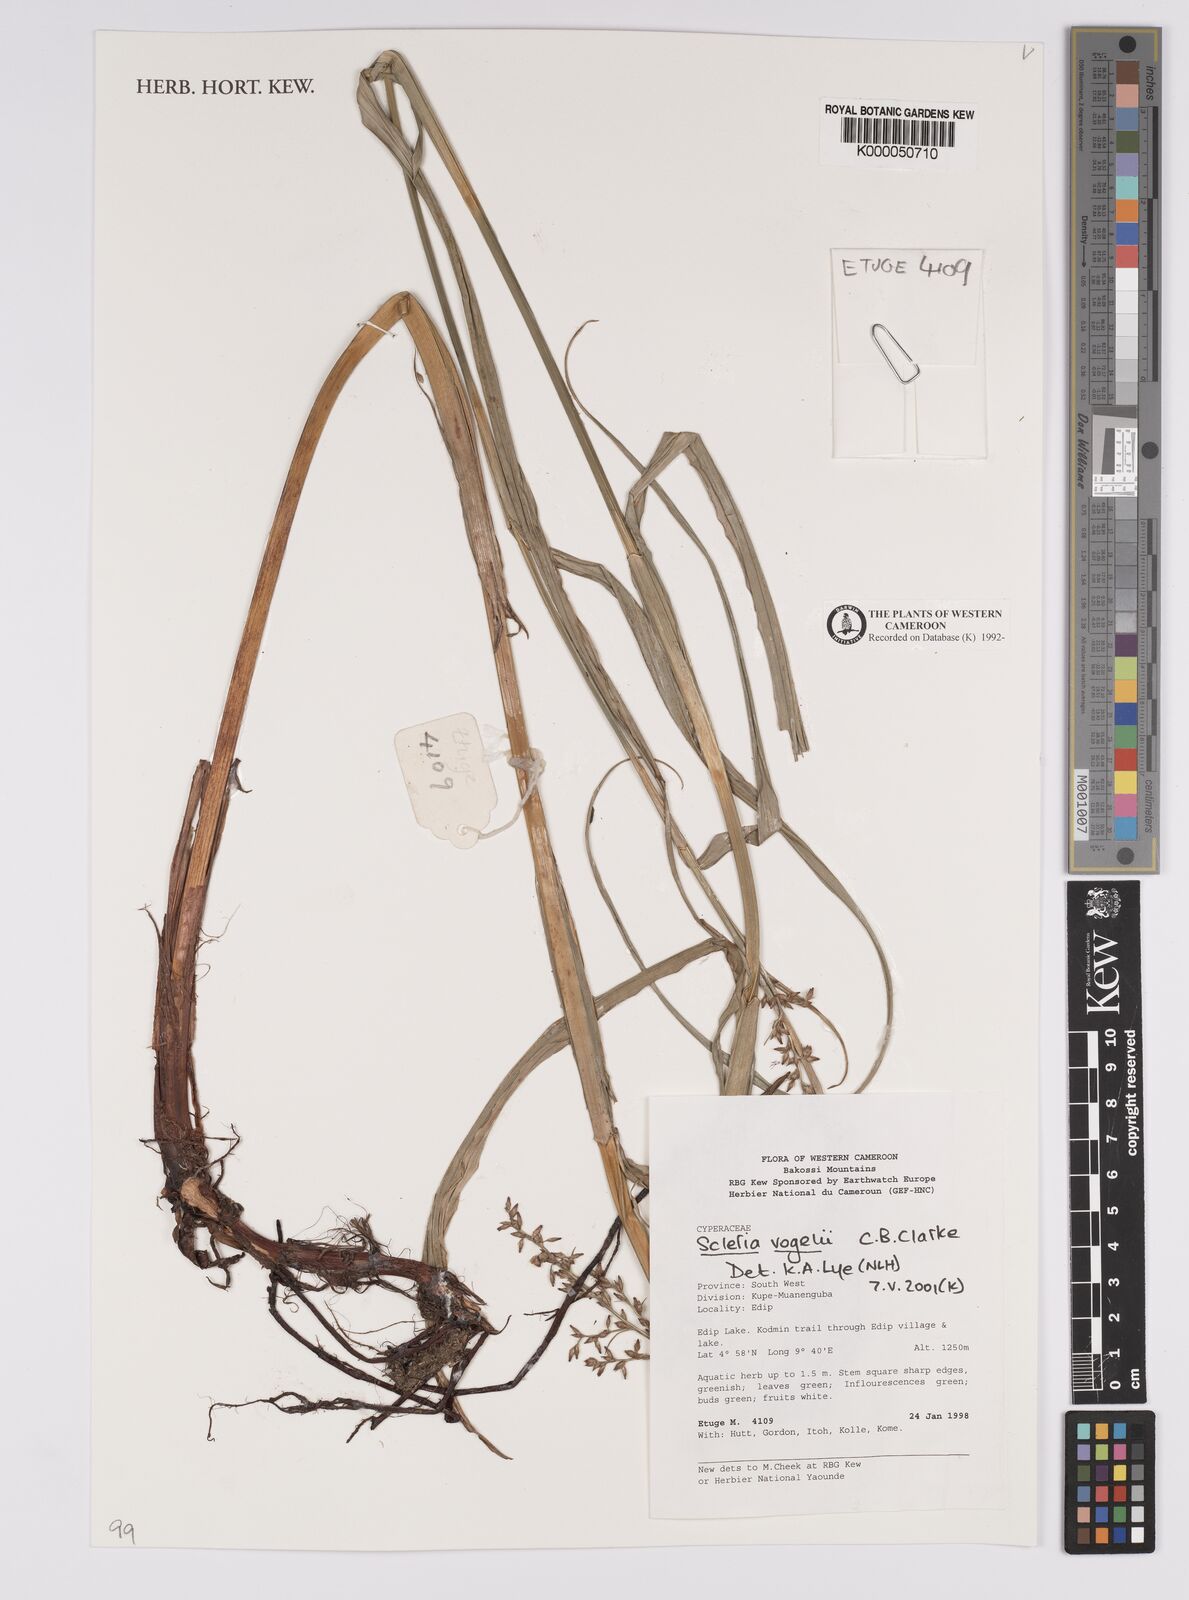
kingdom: Plantae
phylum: Tracheophyta
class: Liliopsida
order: Poales
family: Cyperaceae
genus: Scleria
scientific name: Scleria vogelii
